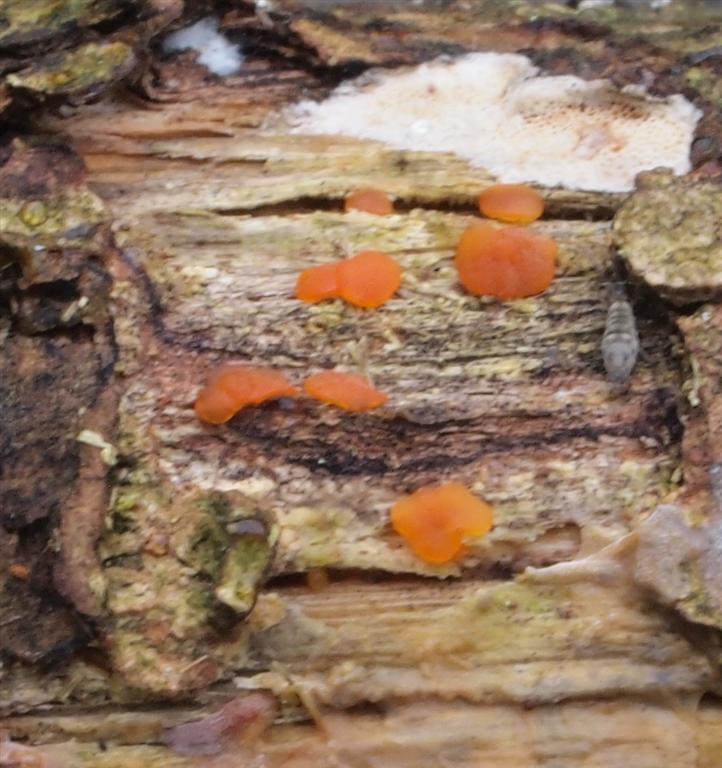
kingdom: Fungi
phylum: Basidiomycota
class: Dacrymycetes
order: Dacrymycetales
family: Dacrymycetaceae
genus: Dacrymyces
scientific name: Dacrymyces lacrymalis
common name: rynket tåresvamp
